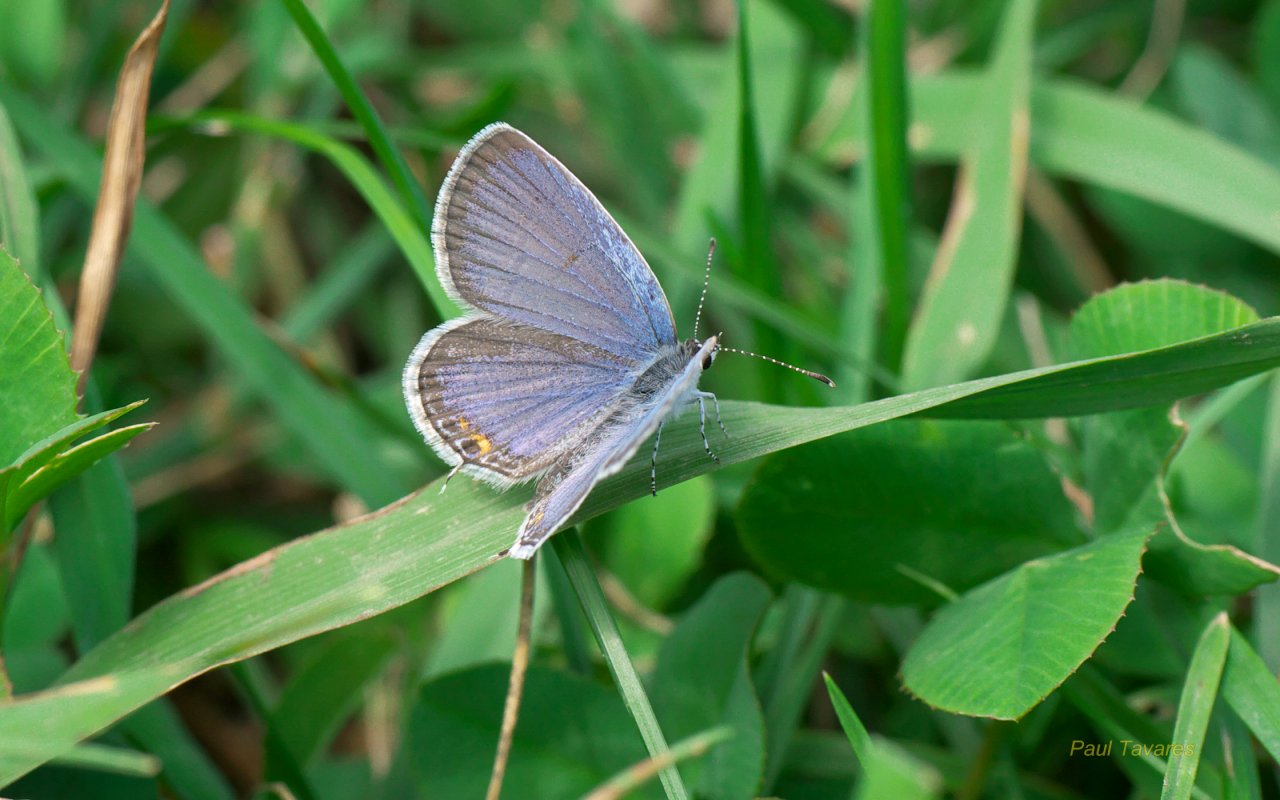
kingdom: Animalia
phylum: Arthropoda
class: Insecta
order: Lepidoptera
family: Lycaenidae
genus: Elkalyce
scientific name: Elkalyce comyntas
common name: Eastern Tailed-Blue
